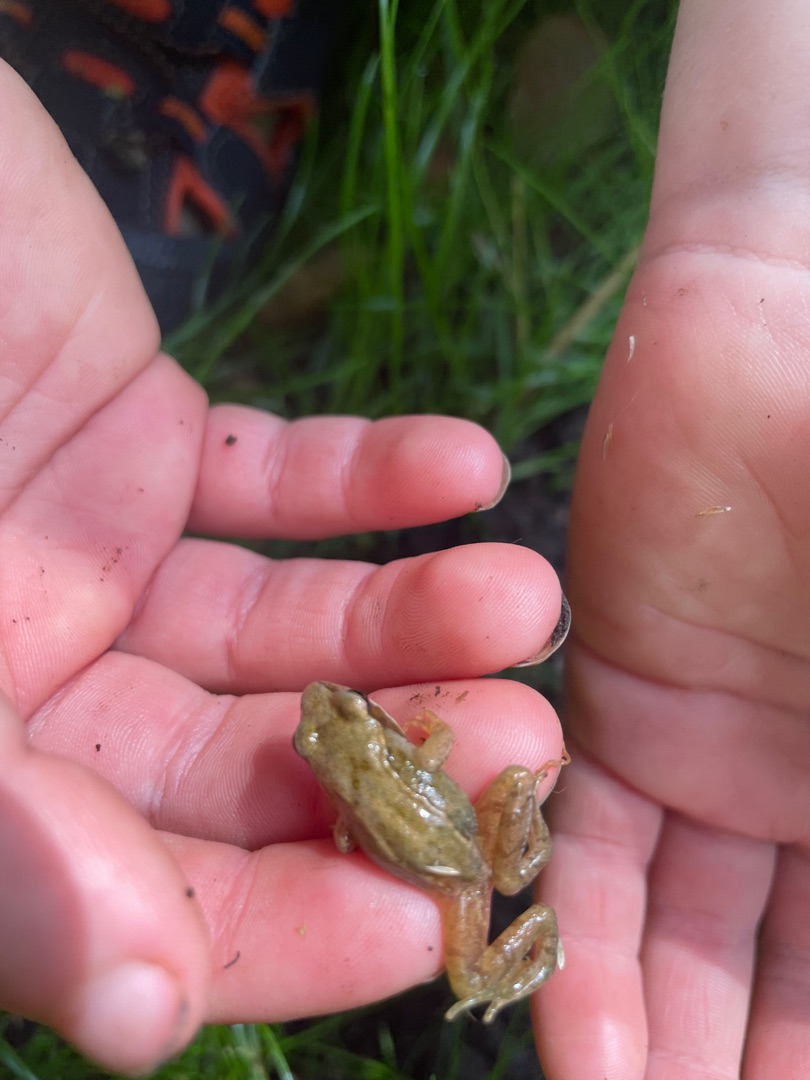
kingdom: Animalia
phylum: Chordata
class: Amphibia
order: Anura
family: Ranidae
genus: Rana
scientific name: Rana temporaria
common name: Butsnudet frø
